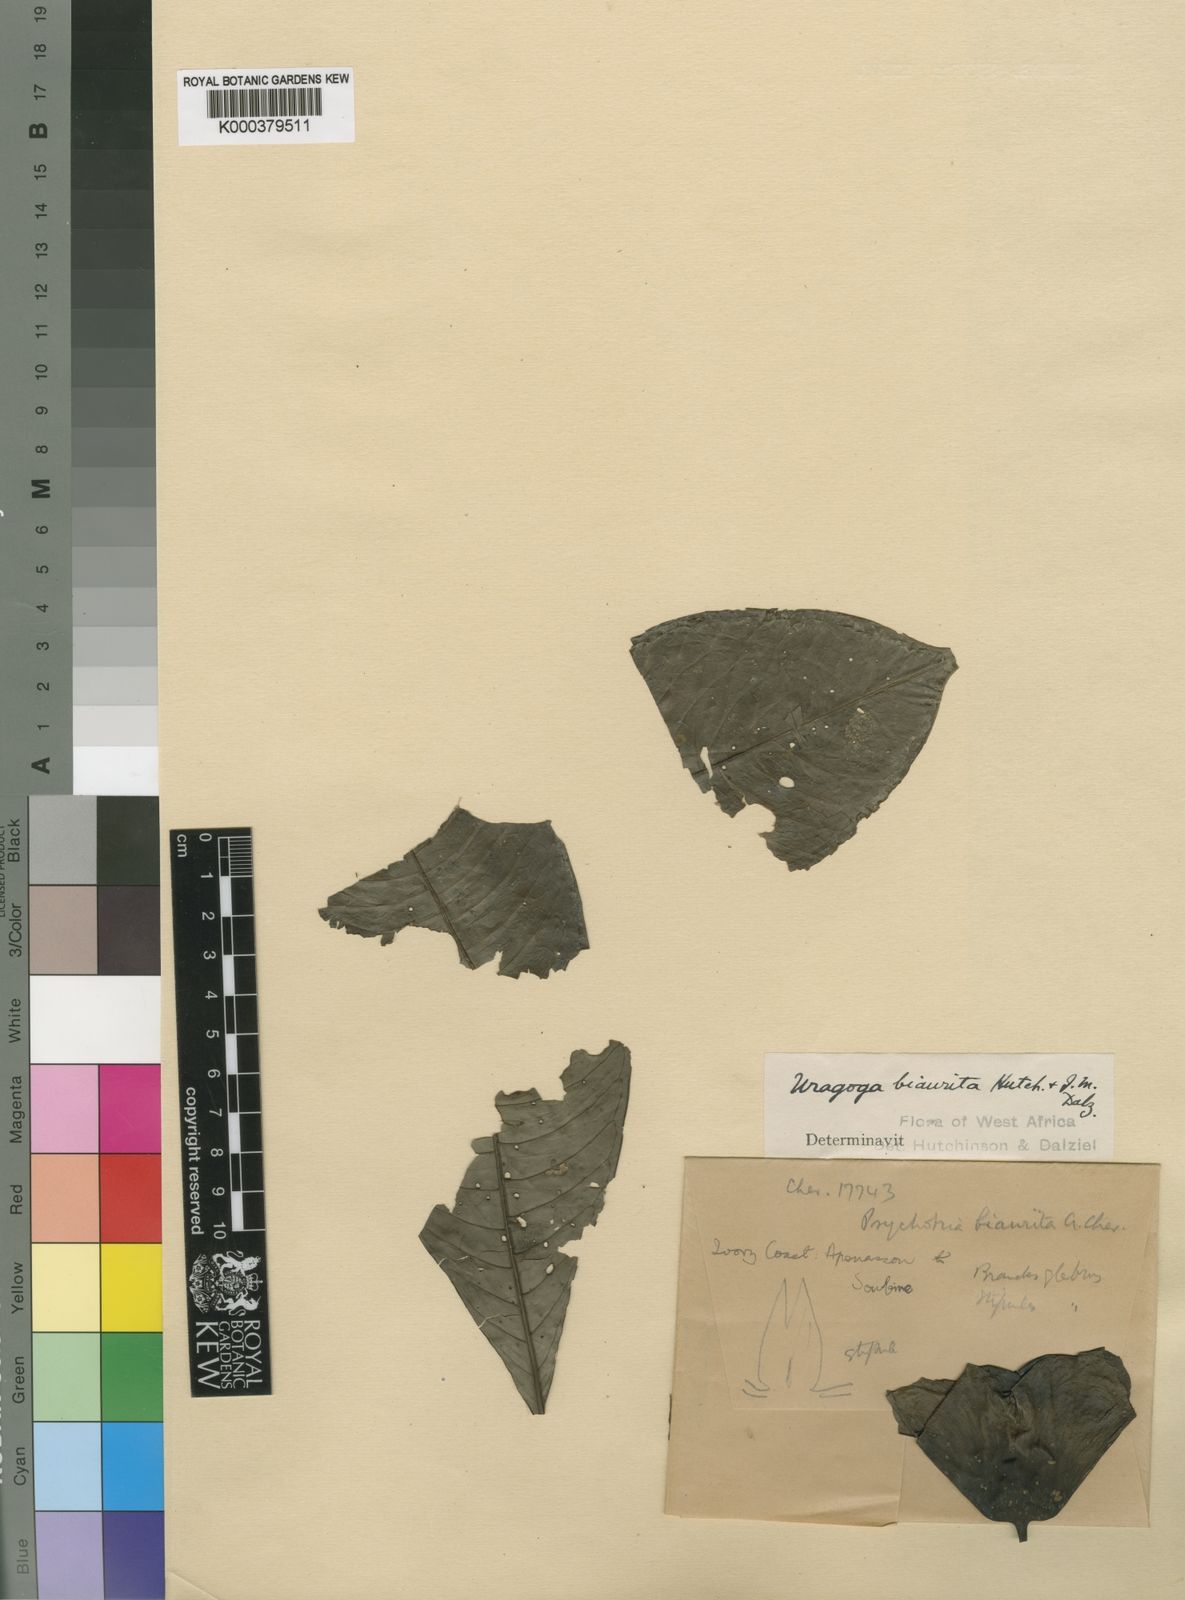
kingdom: Plantae
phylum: Tracheophyta
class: Magnoliopsida
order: Gentianales
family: Rubiaceae
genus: Psychotria
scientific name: Psychotria biaurita
